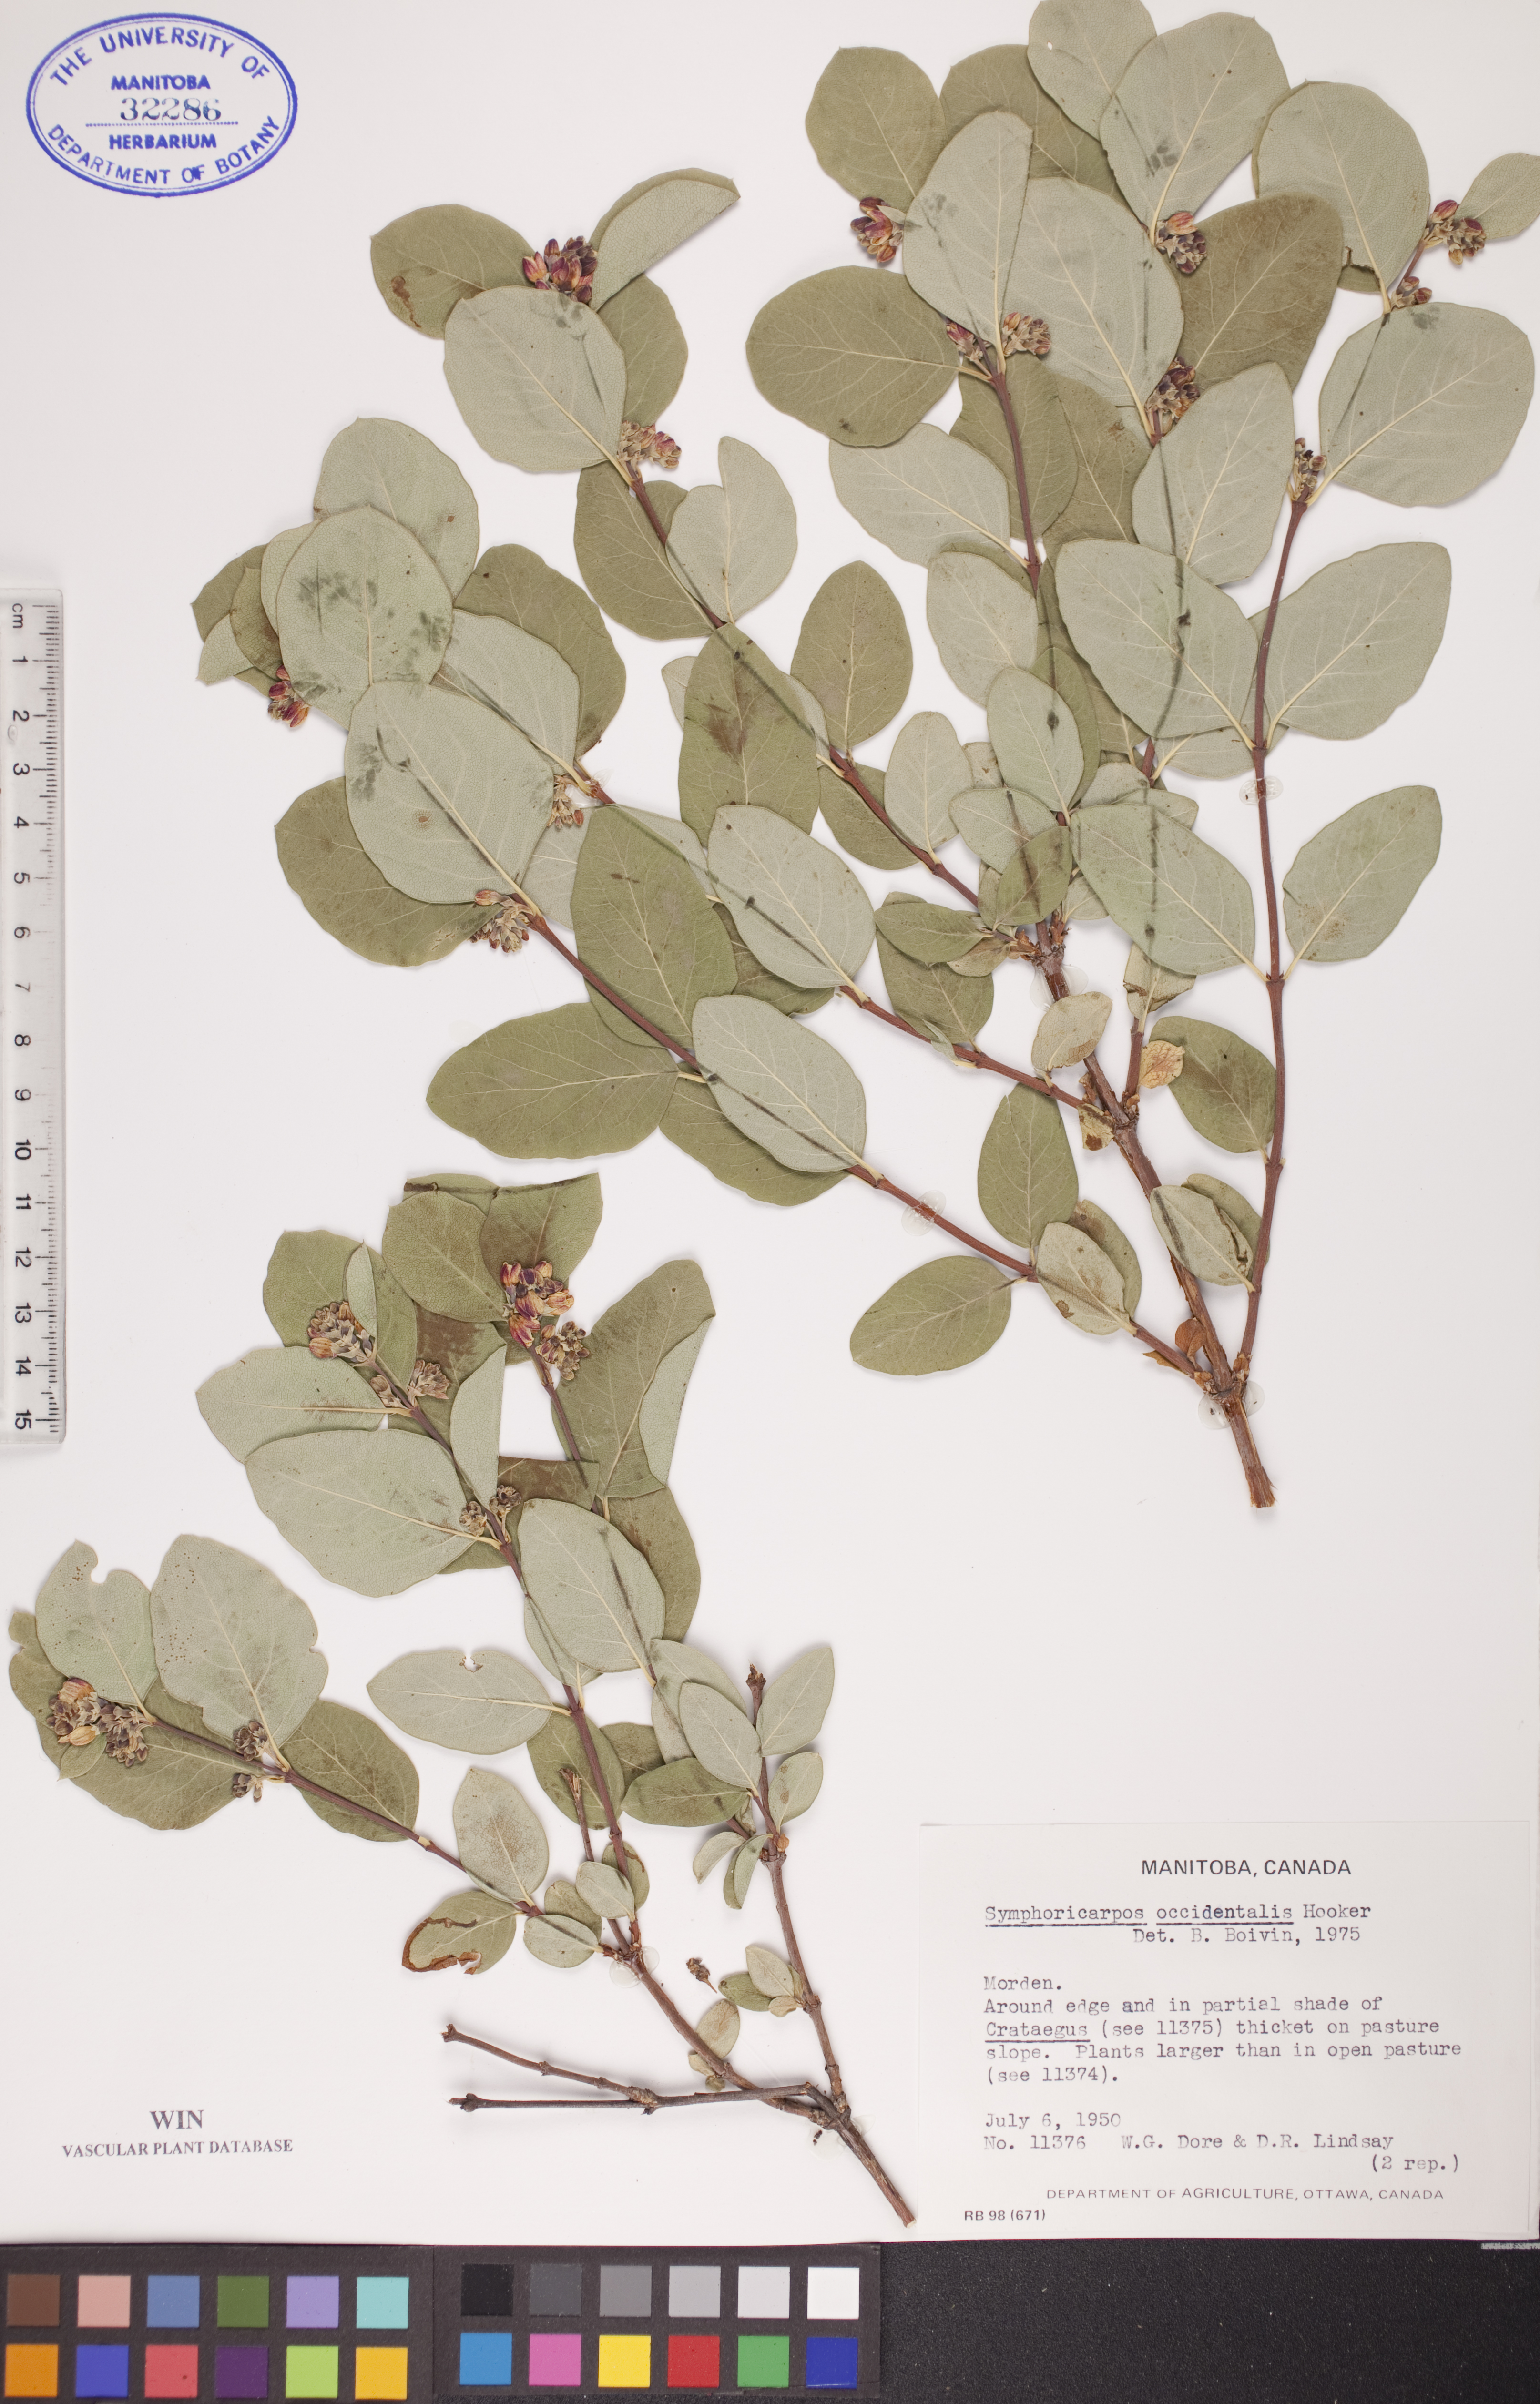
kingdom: Plantae
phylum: Tracheophyta
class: Magnoliopsida
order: Dipsacales
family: Caprifoliaceae
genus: Symphoricarpos
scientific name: Symphoricarpos occidentalis
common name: Wolfberry
